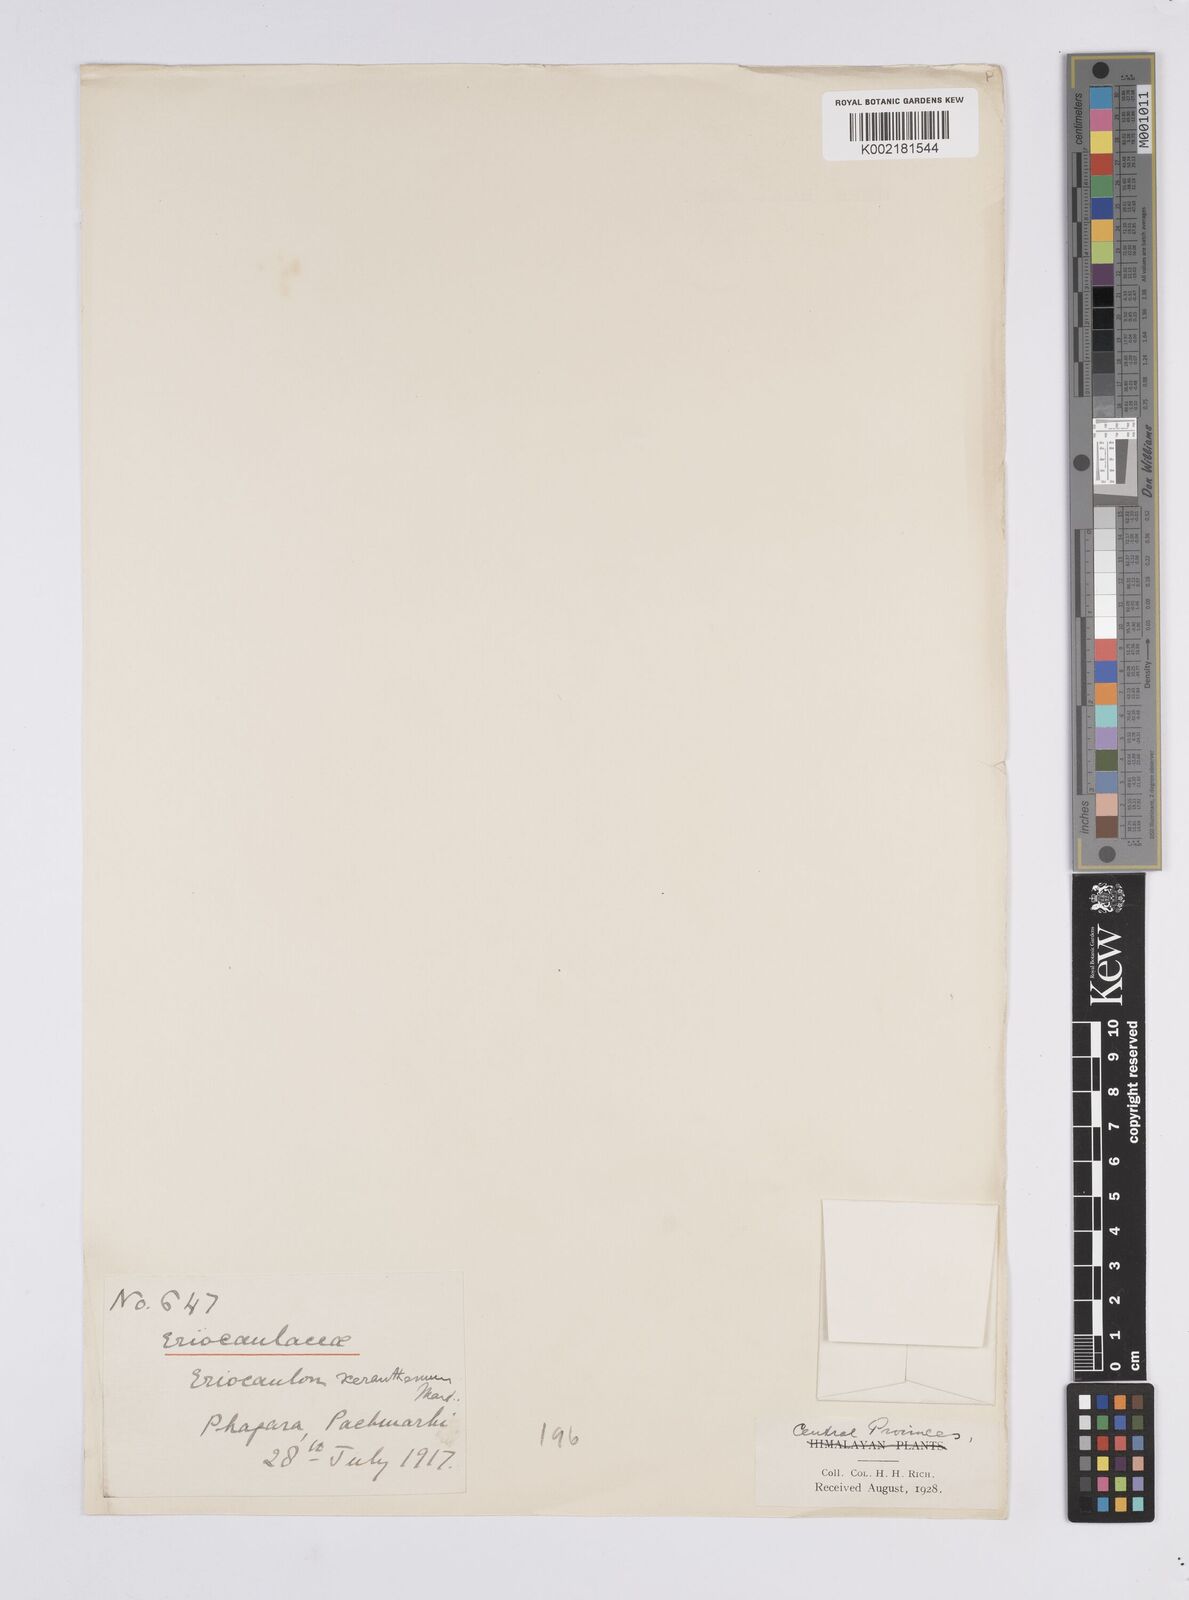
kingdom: Plantae
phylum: Tracheophyta
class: Liliopsida
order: Poales
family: Eriocaulaceae
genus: Eriocaulon
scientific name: Eriocaulon xeranthemum
